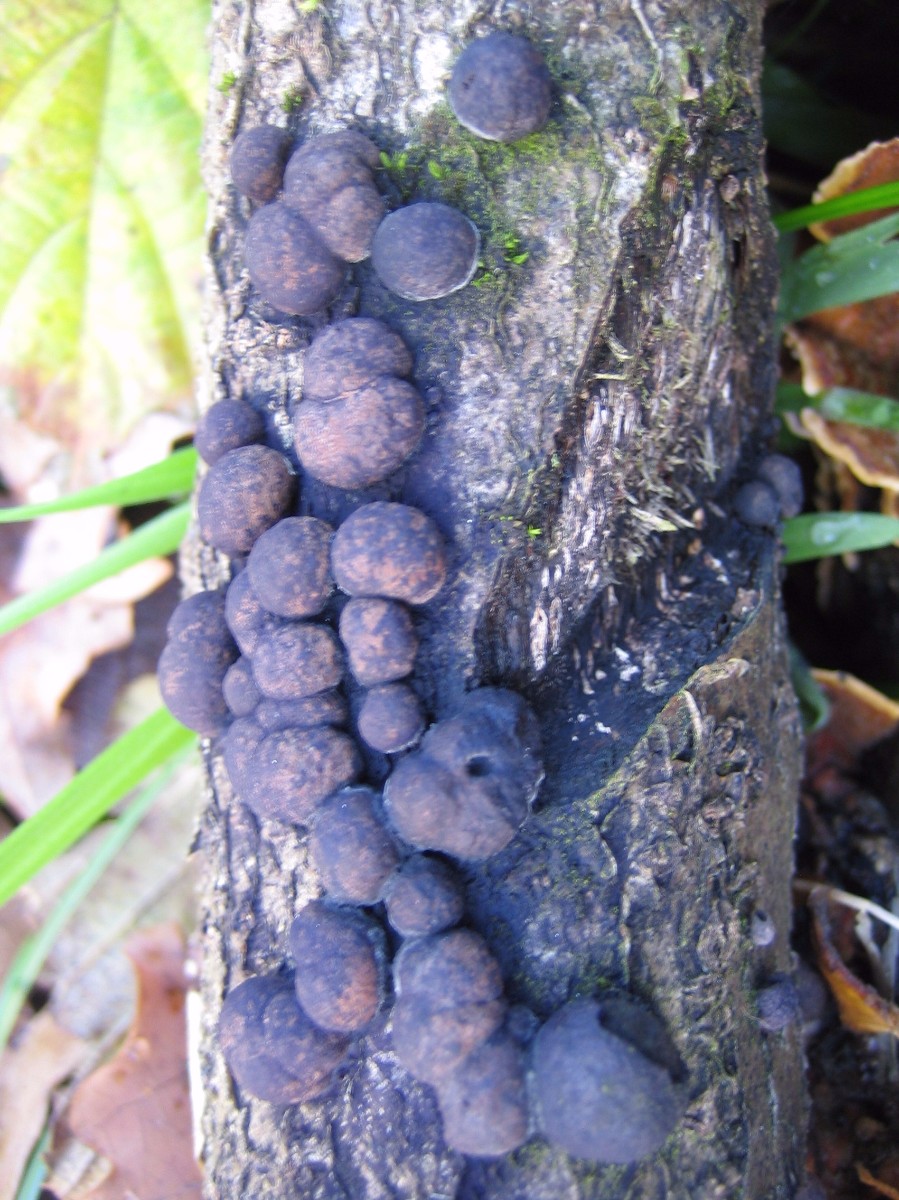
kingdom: Fungi
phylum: Ascomycota
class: Sordariomycetes
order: Xylariales
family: Hypoxylaceae
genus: Hypoxylon
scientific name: Hypoxylon howeanum
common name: halvkugleformet kulbær
